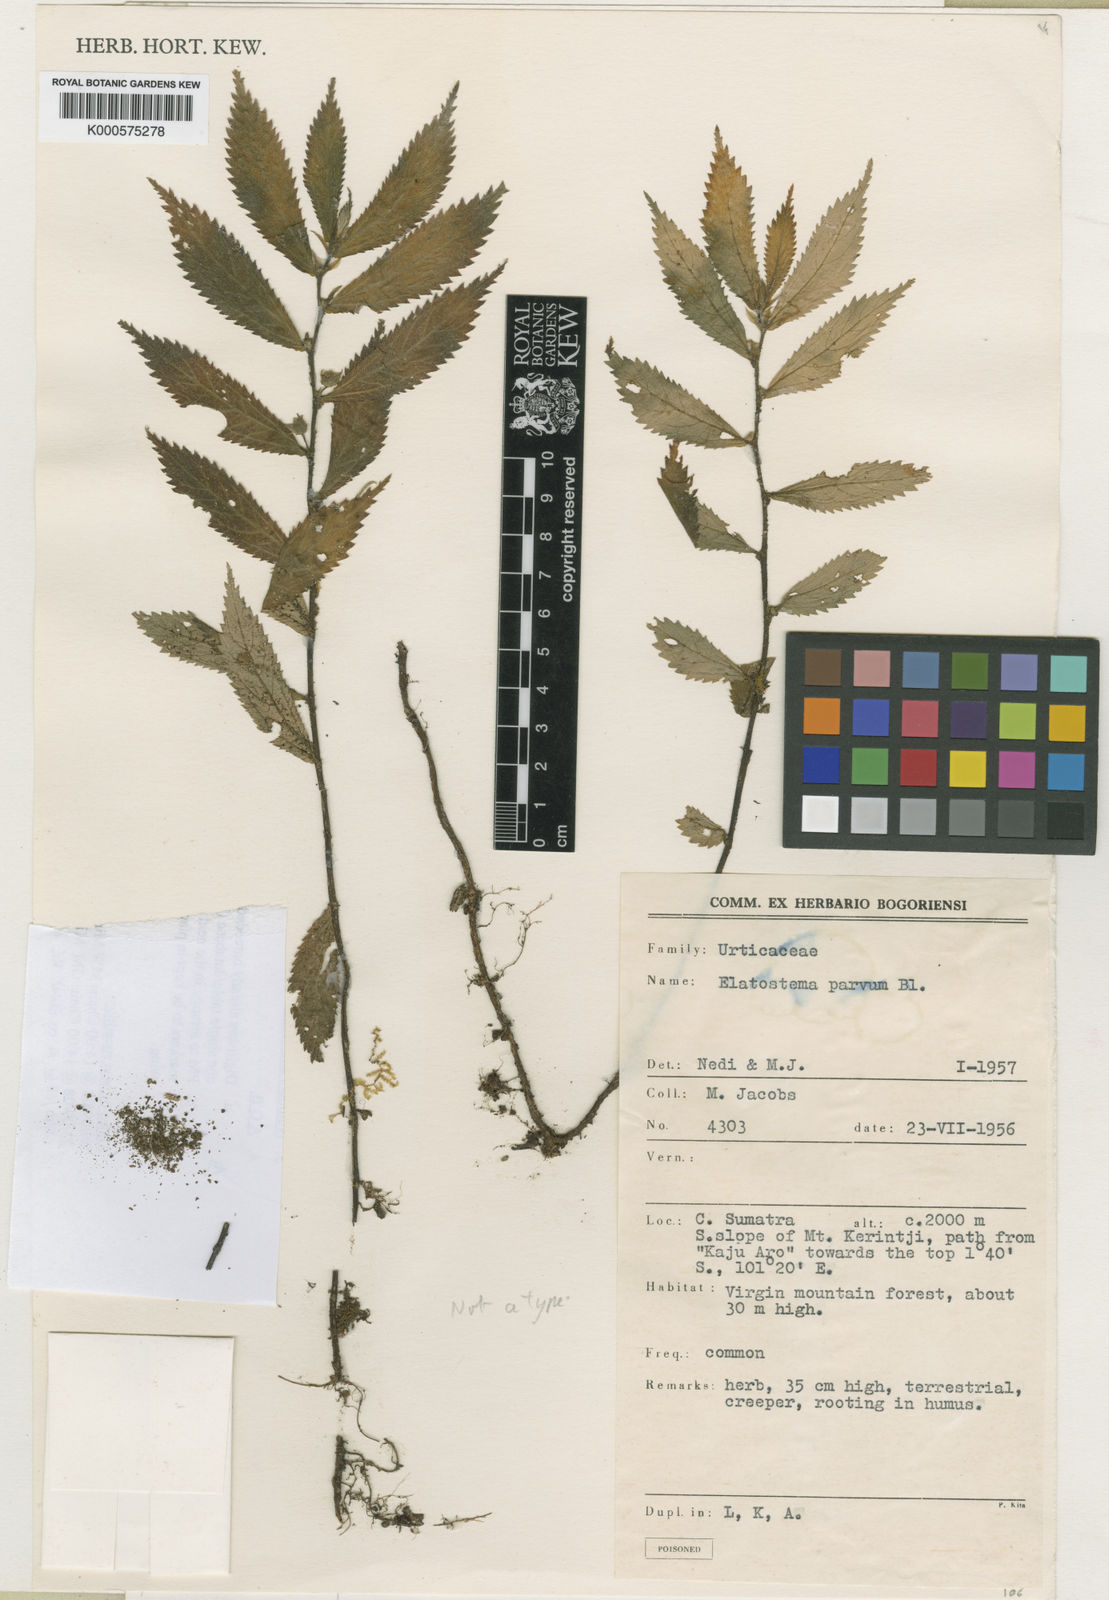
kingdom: Plantae
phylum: Tracheophyta
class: Magnoliopsida
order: Rosales
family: Urticaceae
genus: Elatostema
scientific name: Elatostema parvum
